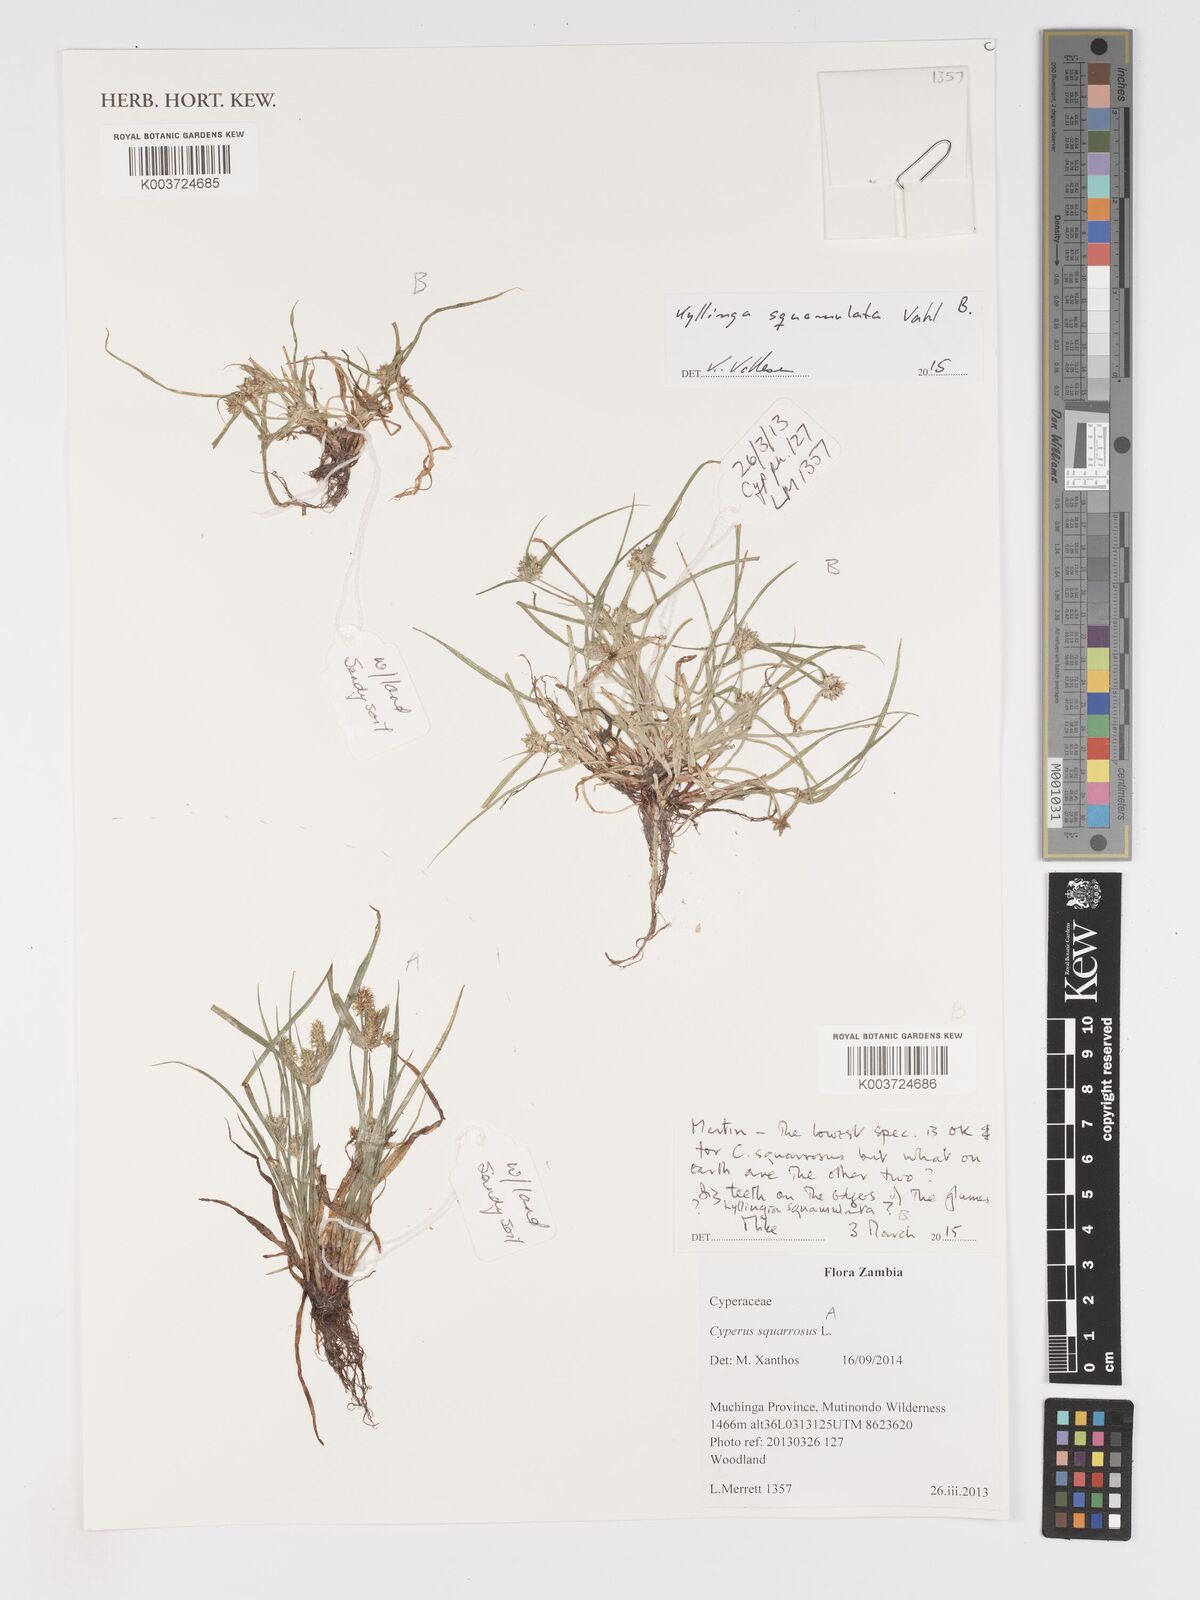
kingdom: Plantae
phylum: Tracheophyta
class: Liliopsida
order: Poales
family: Cyperaceae
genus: Cyperus
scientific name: Cyperus squarrosus
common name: Awned cyperus
